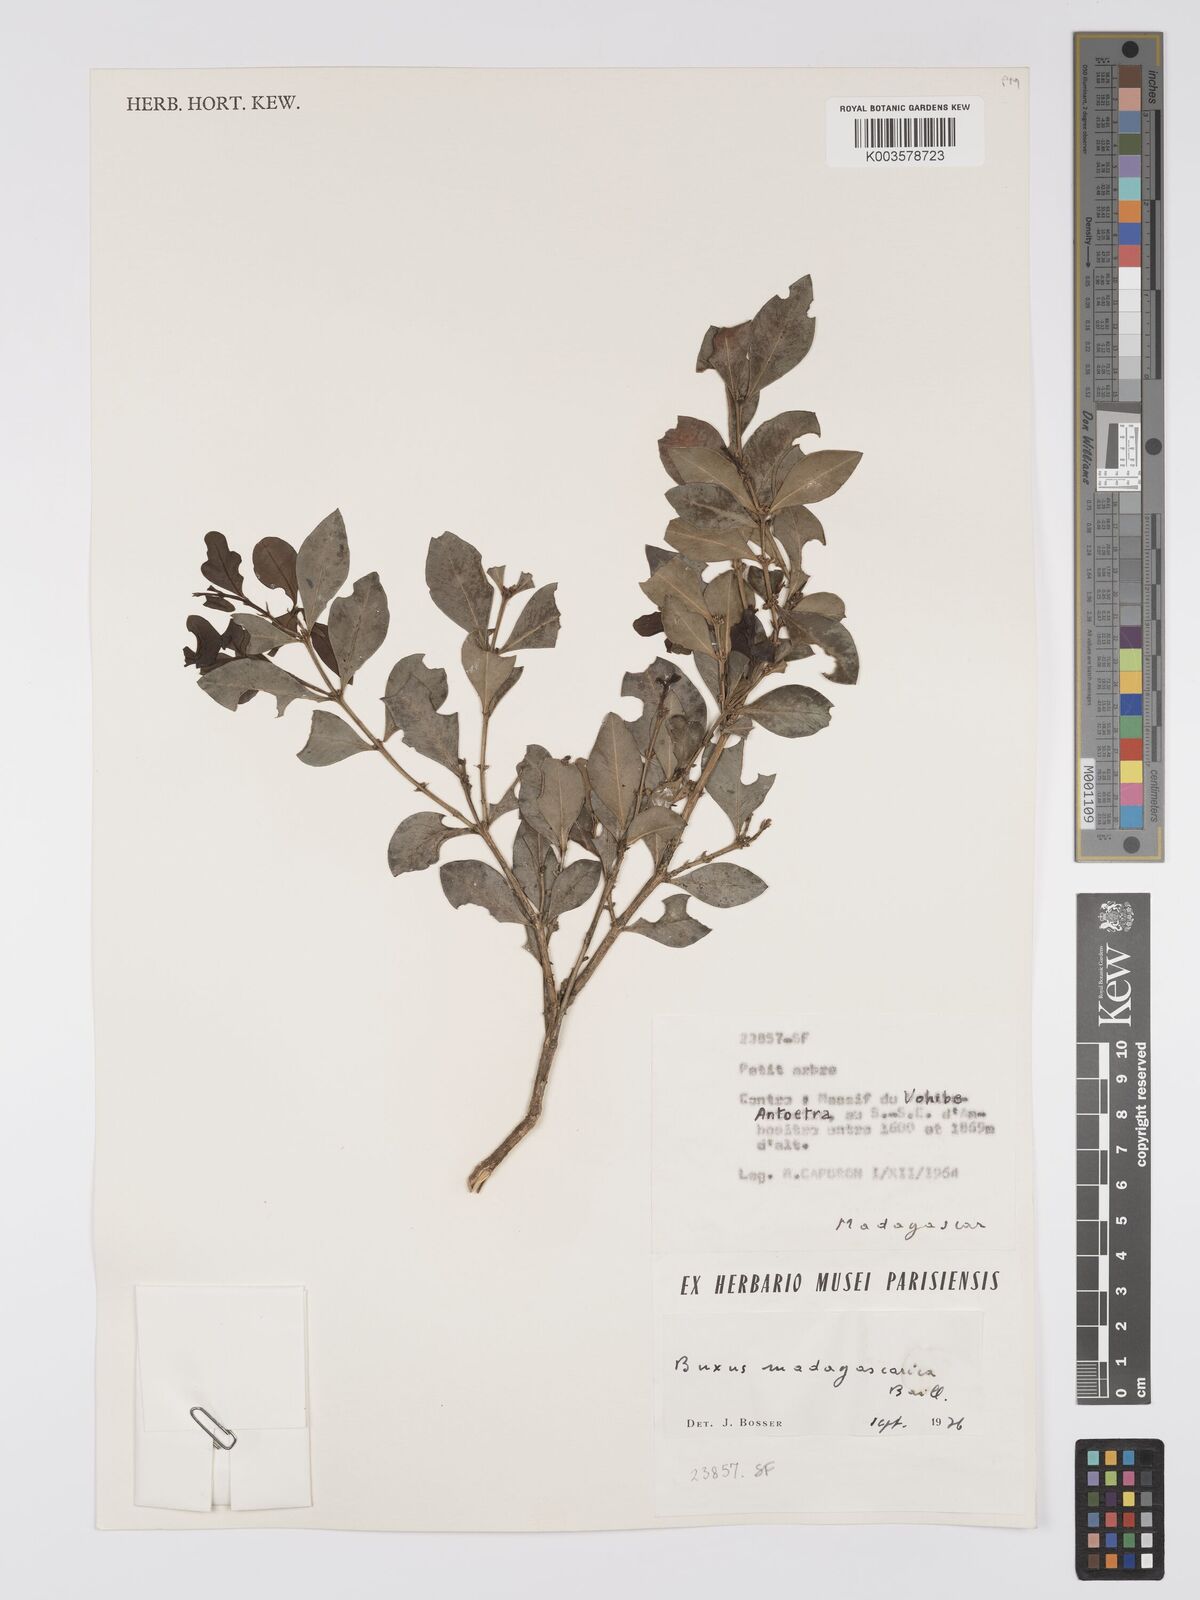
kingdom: Plantae
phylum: Tracheophyta
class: Magnoliopsida
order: Buxales
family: Buxaceae
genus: Buxus
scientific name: Buxus madagascarica
